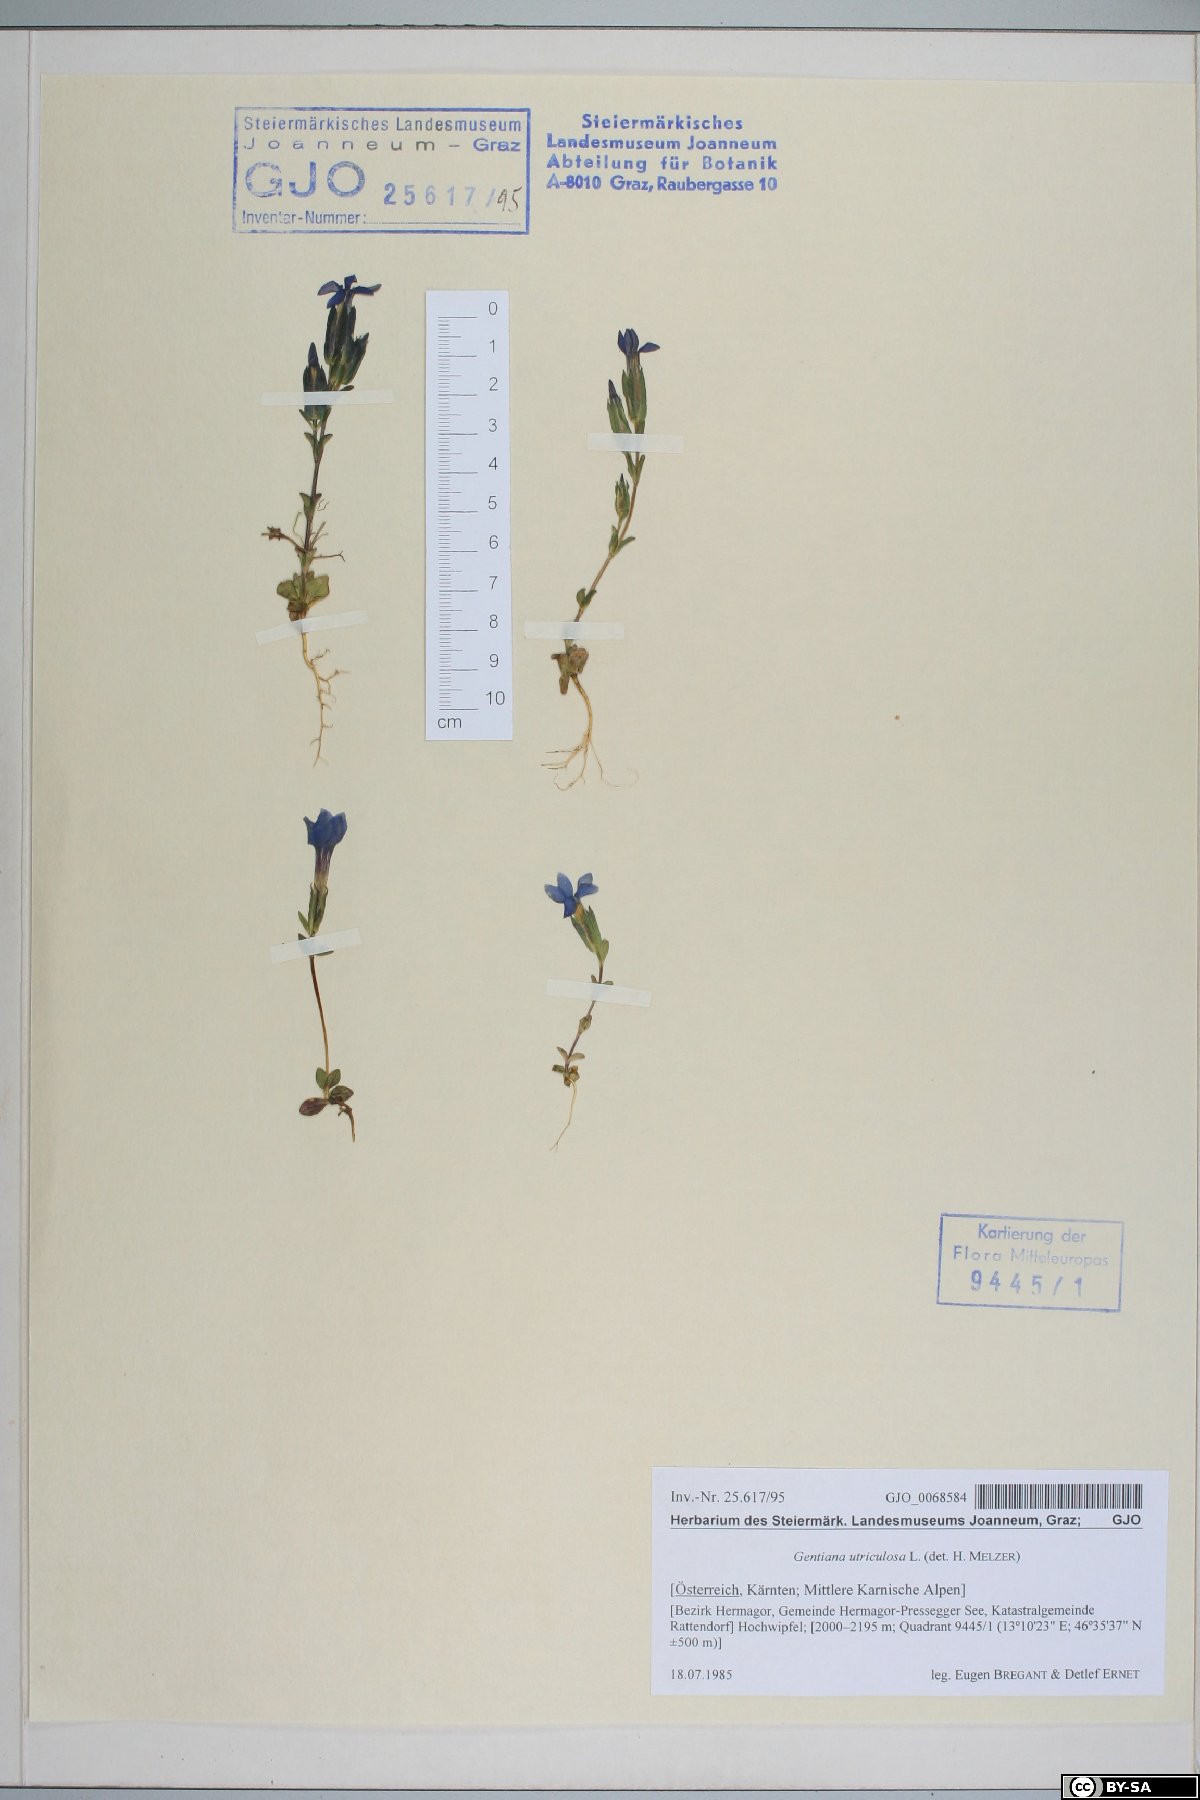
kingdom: Plantae
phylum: Tracheophyta
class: Magnoliopsida
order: Gentianales
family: Gentianaceae
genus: Gentiana
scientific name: Gentiana utriculosa
